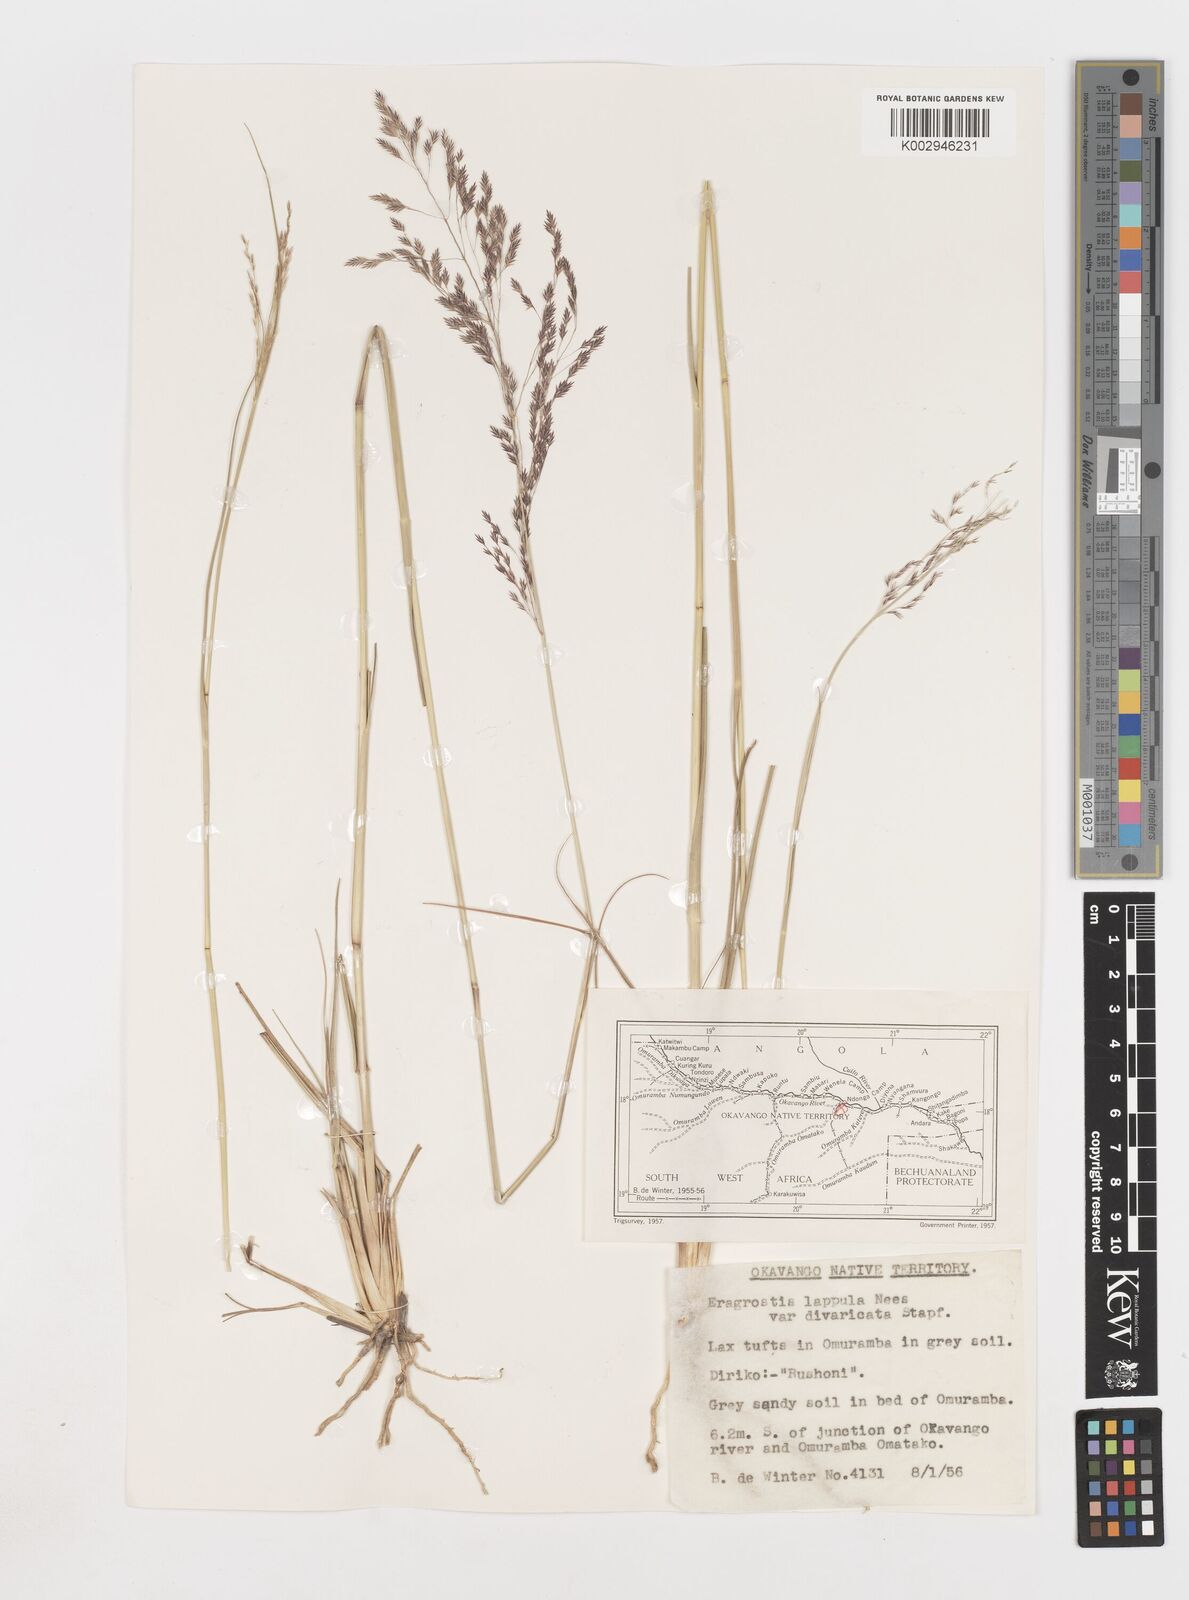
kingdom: Plantae
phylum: Tracheophyta
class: Liliopsida
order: Poales
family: Poaceae
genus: Eragrostis
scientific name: Eragrostis lappula
